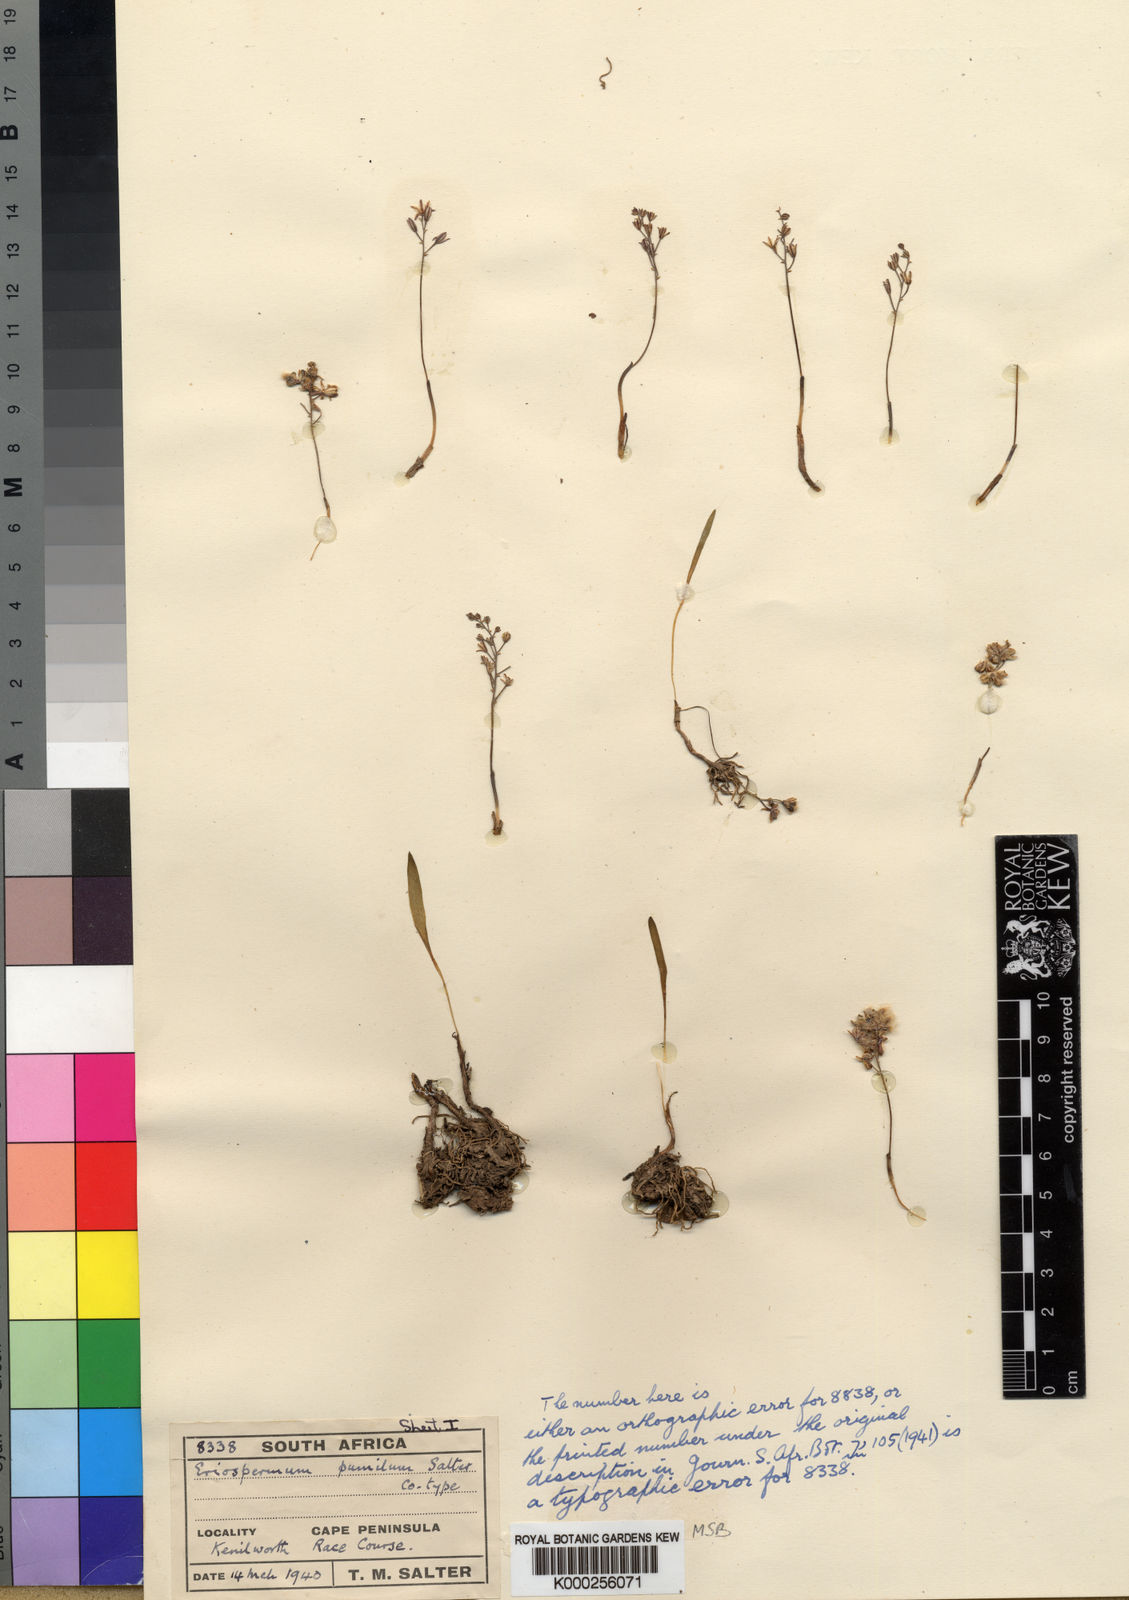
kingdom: Plantae
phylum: Tracheophyta
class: Liliopsida
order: Asparagales
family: Asparagaceae
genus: Eriospermum
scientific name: Eriospermum pumilum
